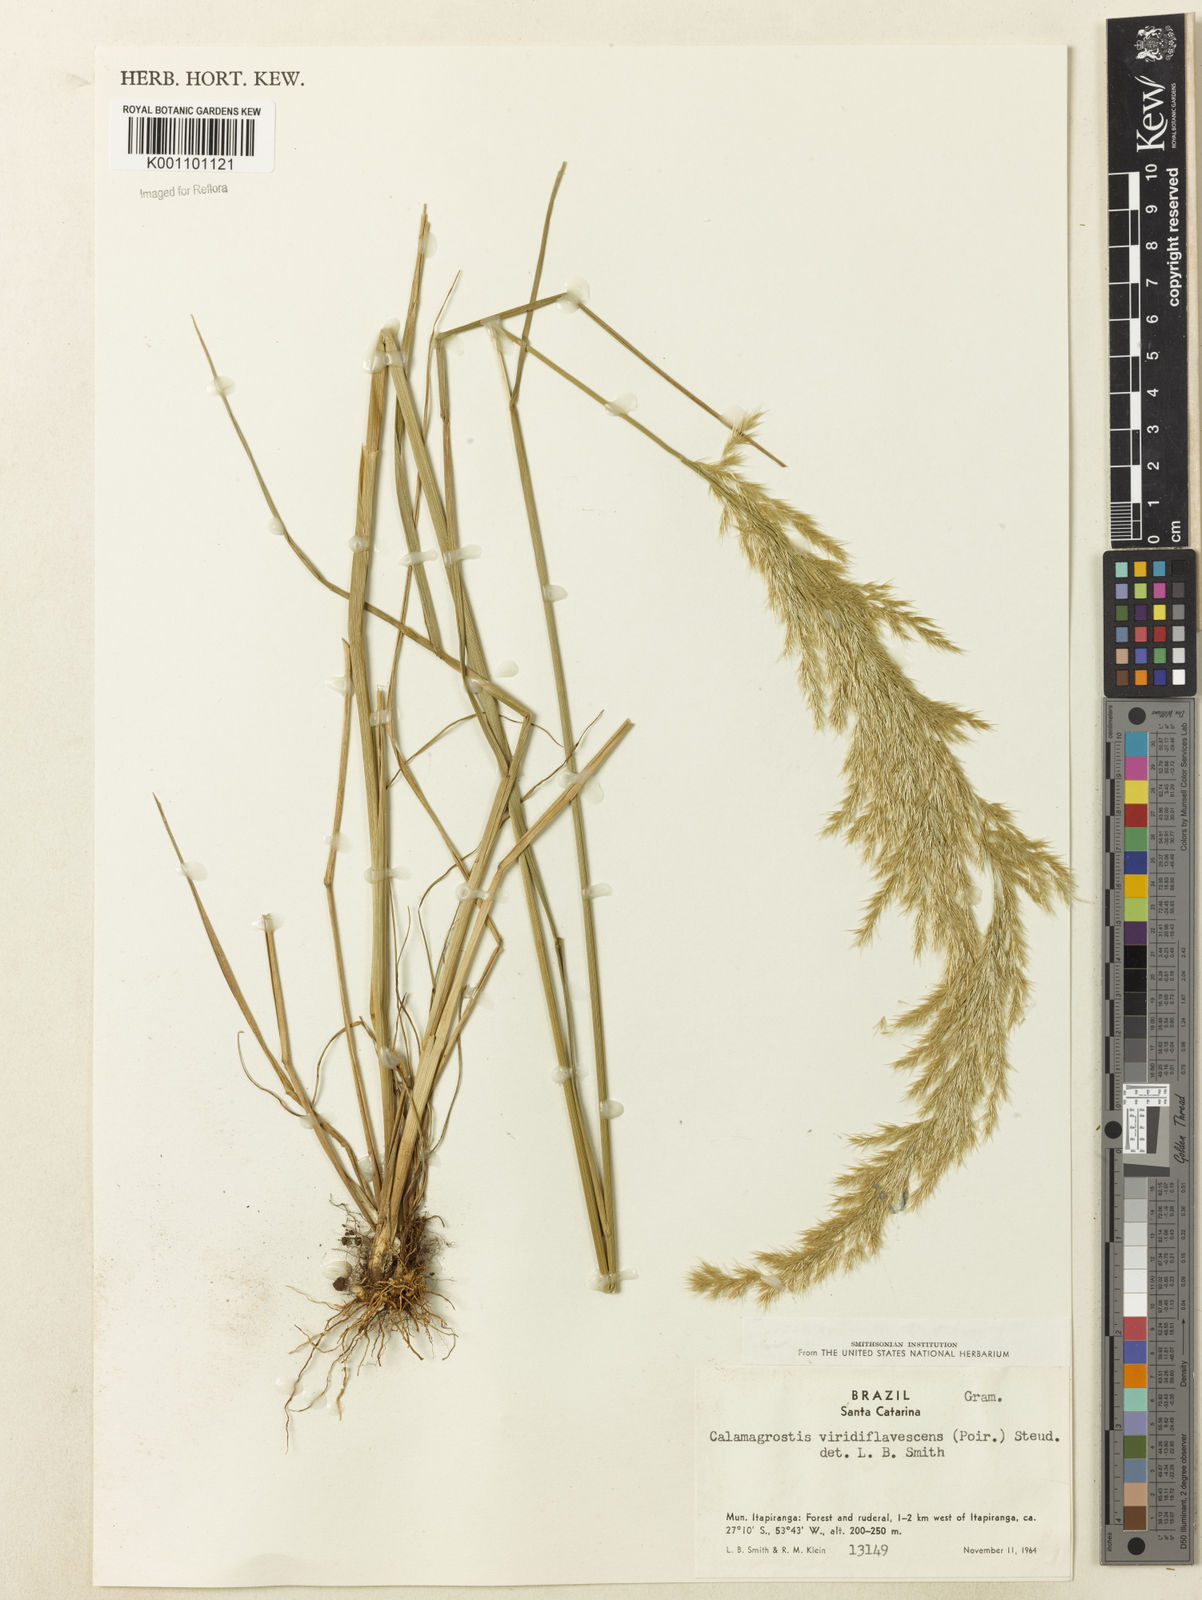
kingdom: Plantae
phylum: Tracheophyta
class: Liliopsida
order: Poales
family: Poaceae
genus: Cinnagrostis
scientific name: Cinnagrostis viridiflavescens
